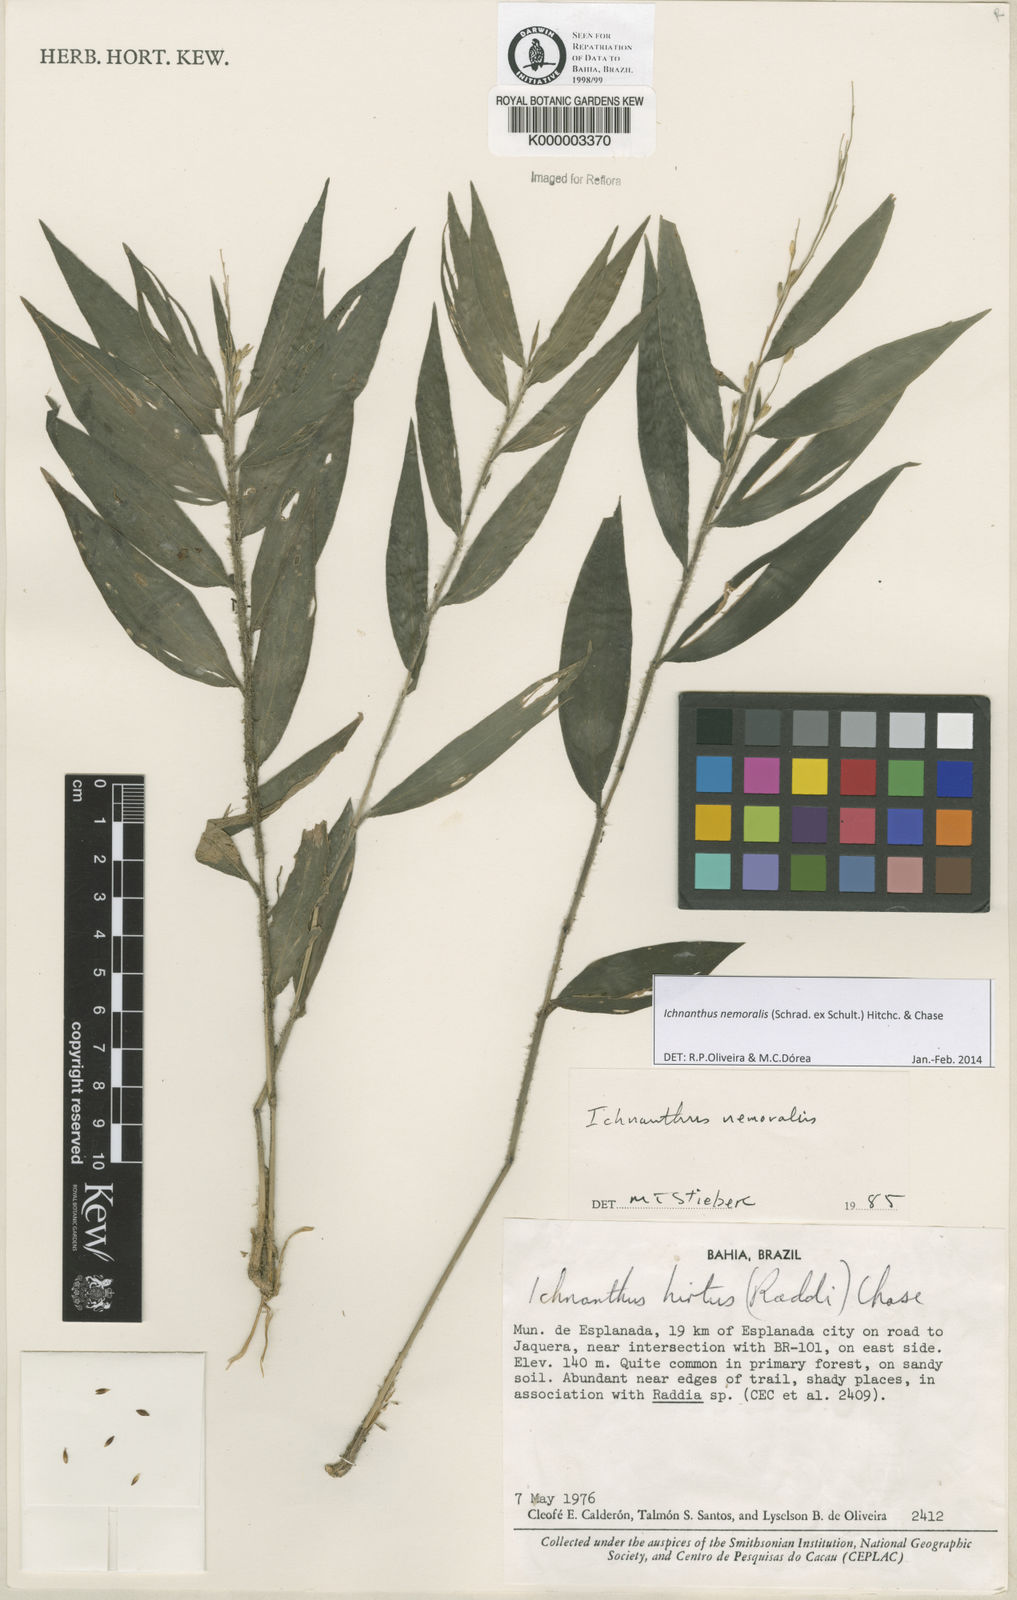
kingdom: Plantae
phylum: Tracheophyta
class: Liliopsida
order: Poales
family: Poaceae
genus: Ichnanthus
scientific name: Ichnanthus nemoralis
